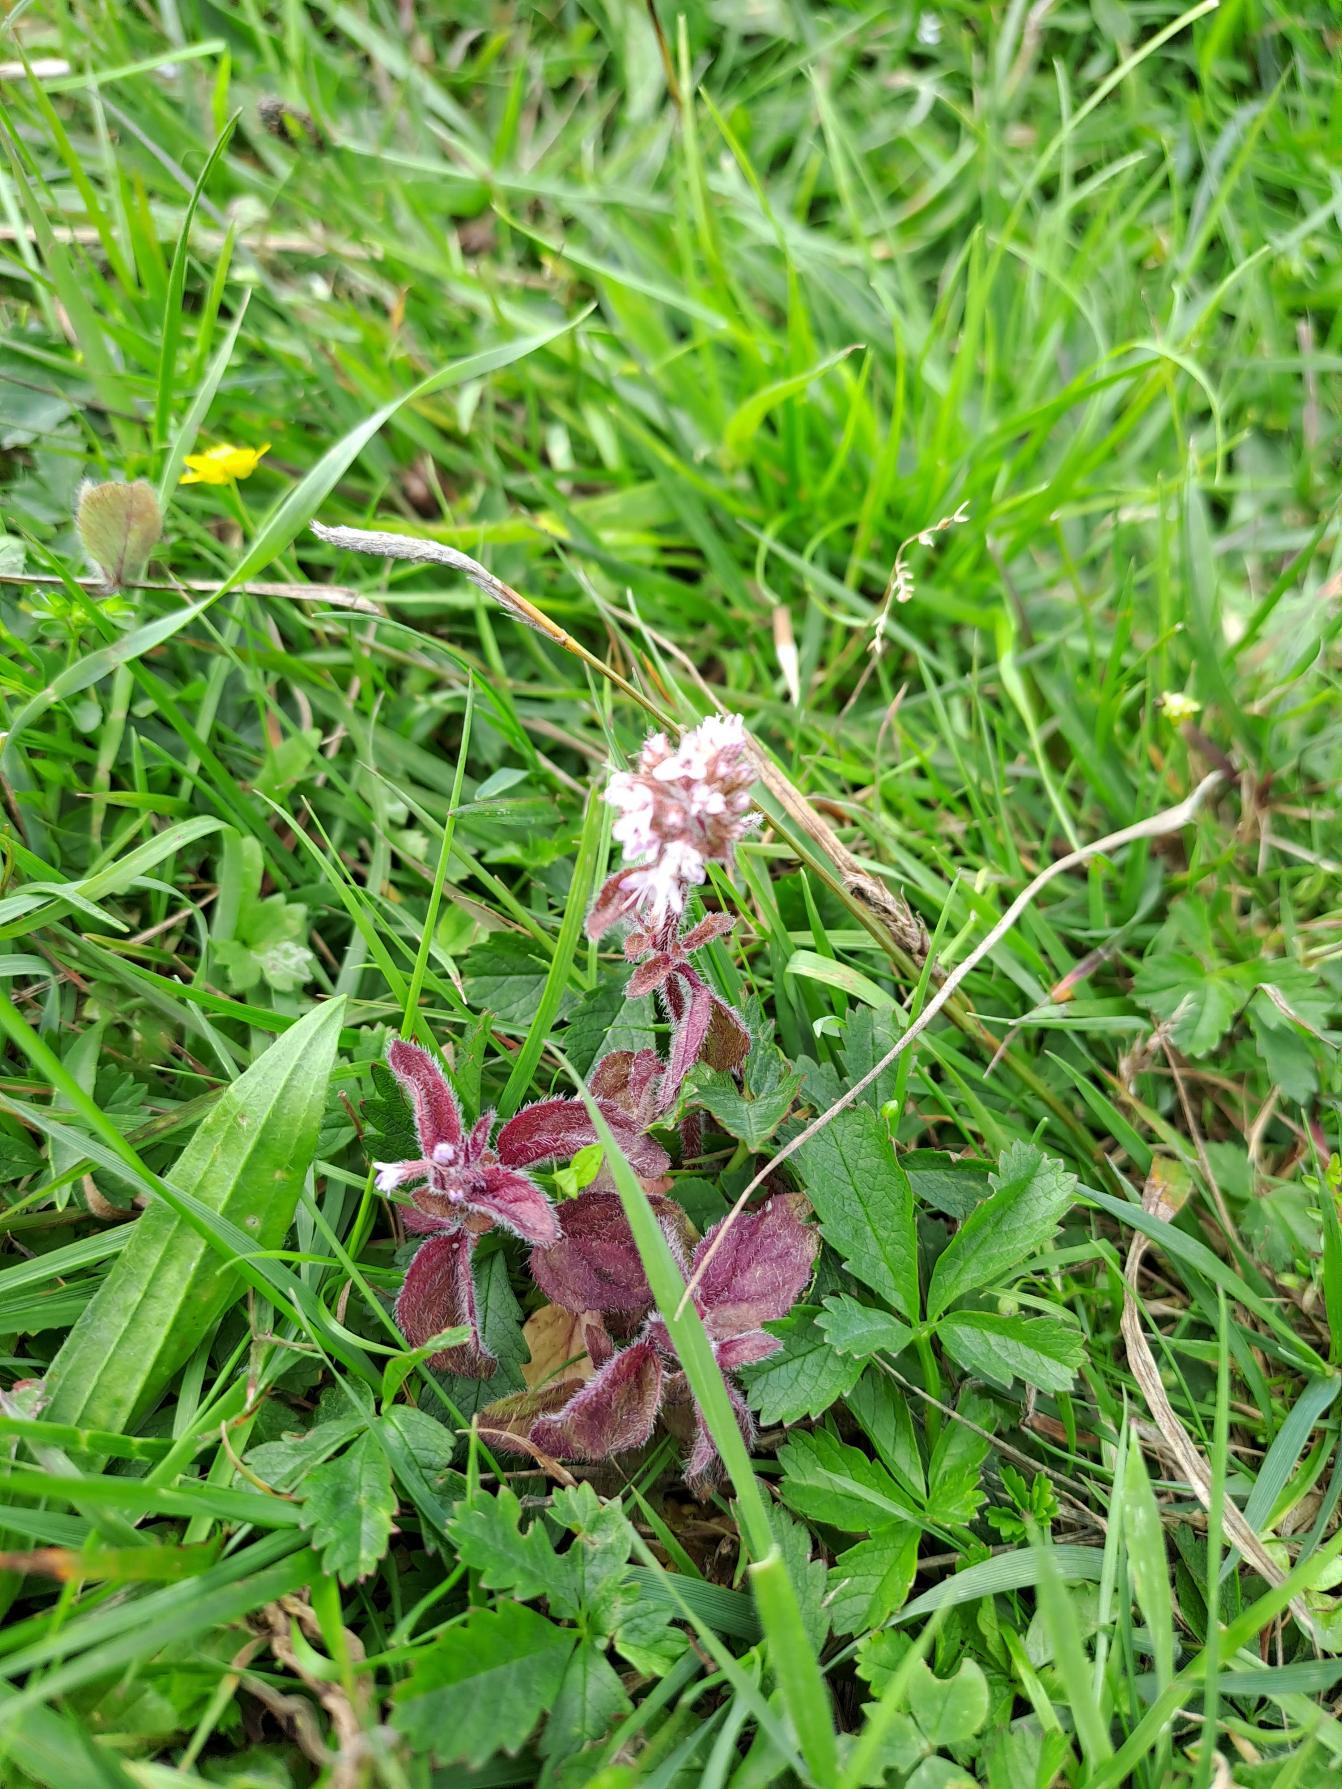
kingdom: Plantae
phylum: Tracheophyta
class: Magnoliopsida
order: Lamiales
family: Lamiaceae
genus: Mentha
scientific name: Mentha aquatica
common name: Vand-mynte
